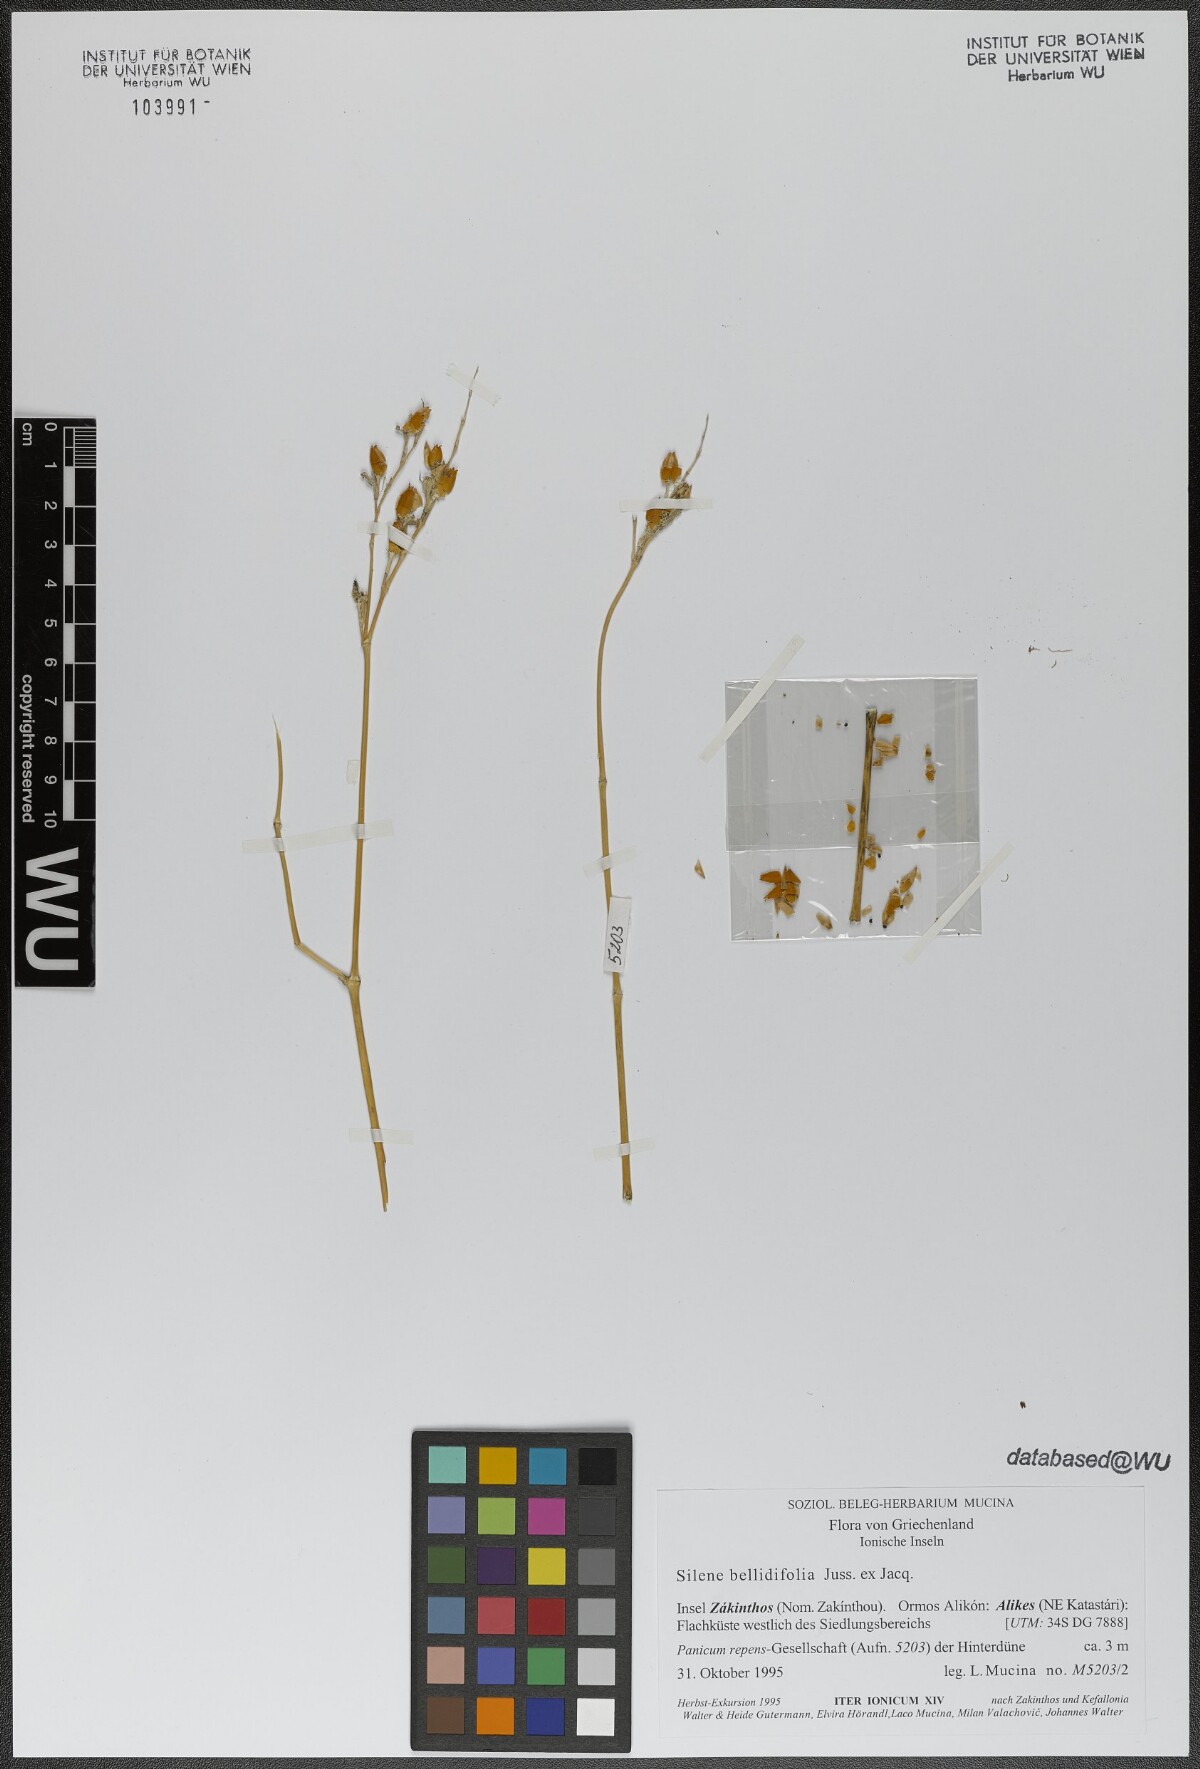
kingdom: Plantae
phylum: Tracheophyta
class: Magnoliopsida
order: Caryophyllales
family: Caryophyllaceae
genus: Silene
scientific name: Silene bellidifolia
